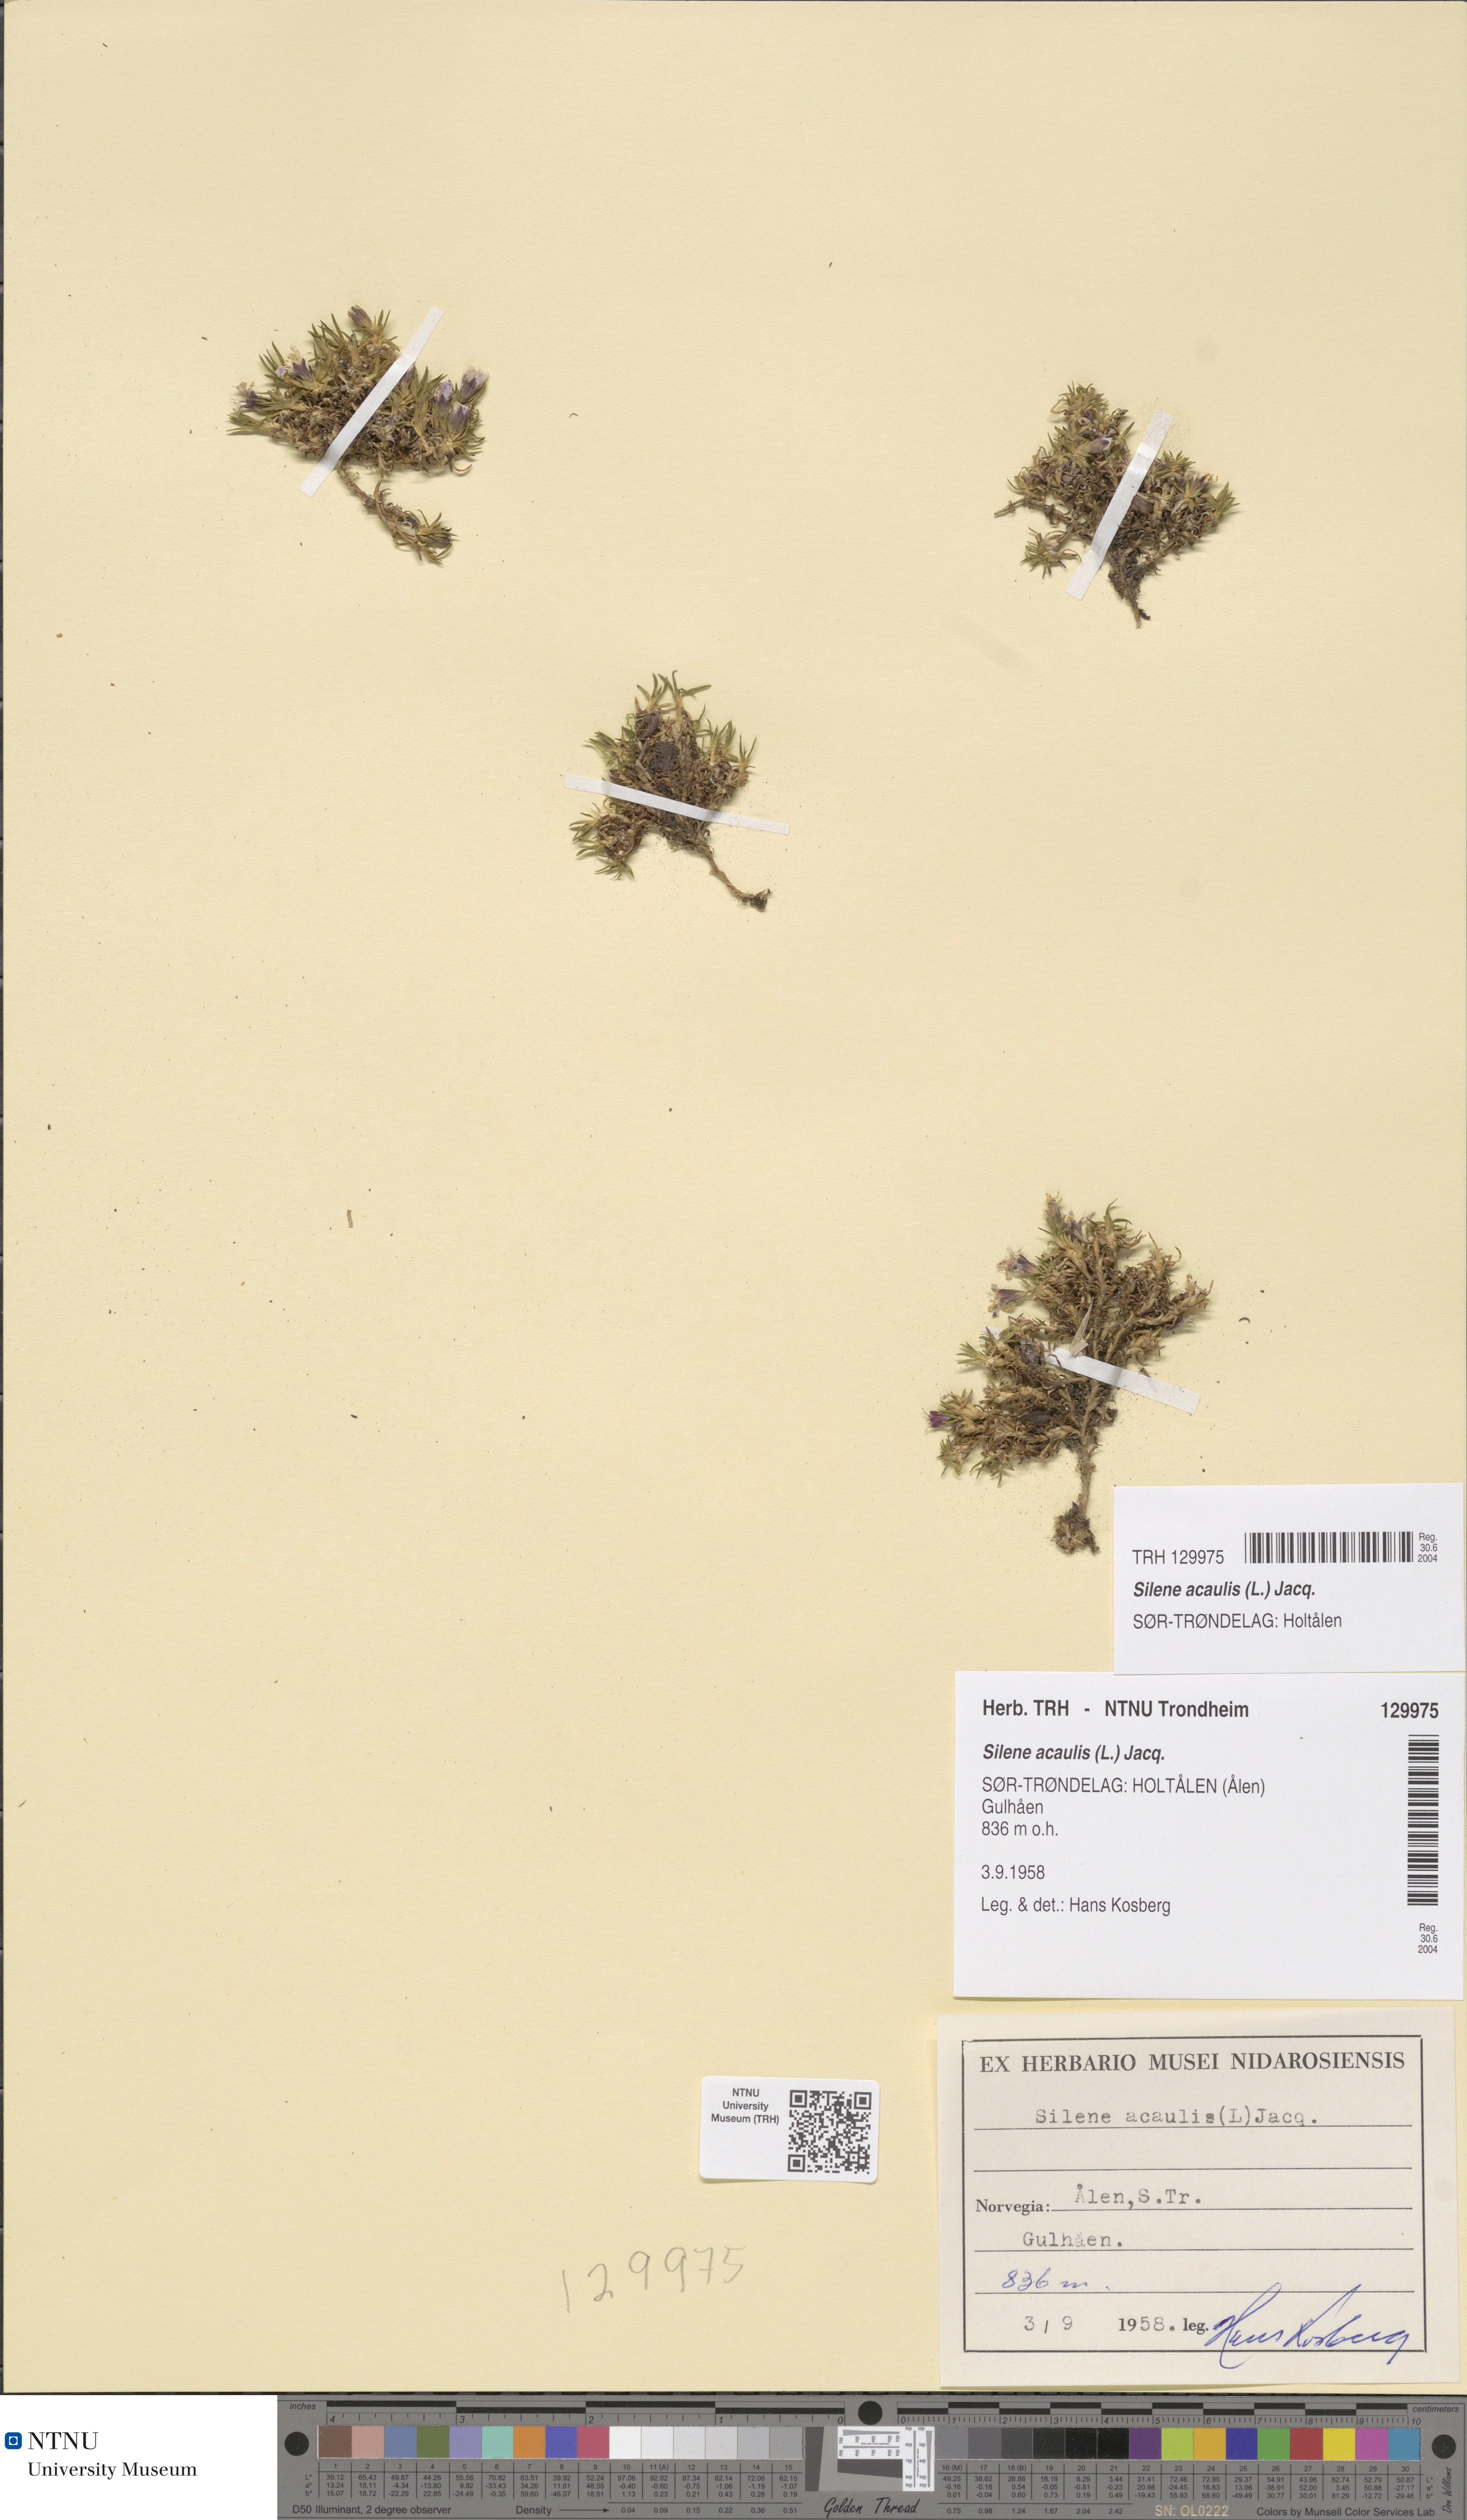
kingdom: Plantae
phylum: Tracheophyta
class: Magnoliopsida
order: Caryophyllales
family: Caryophyllaceae
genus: Silene
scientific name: Silene acaulis
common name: Moss campion
